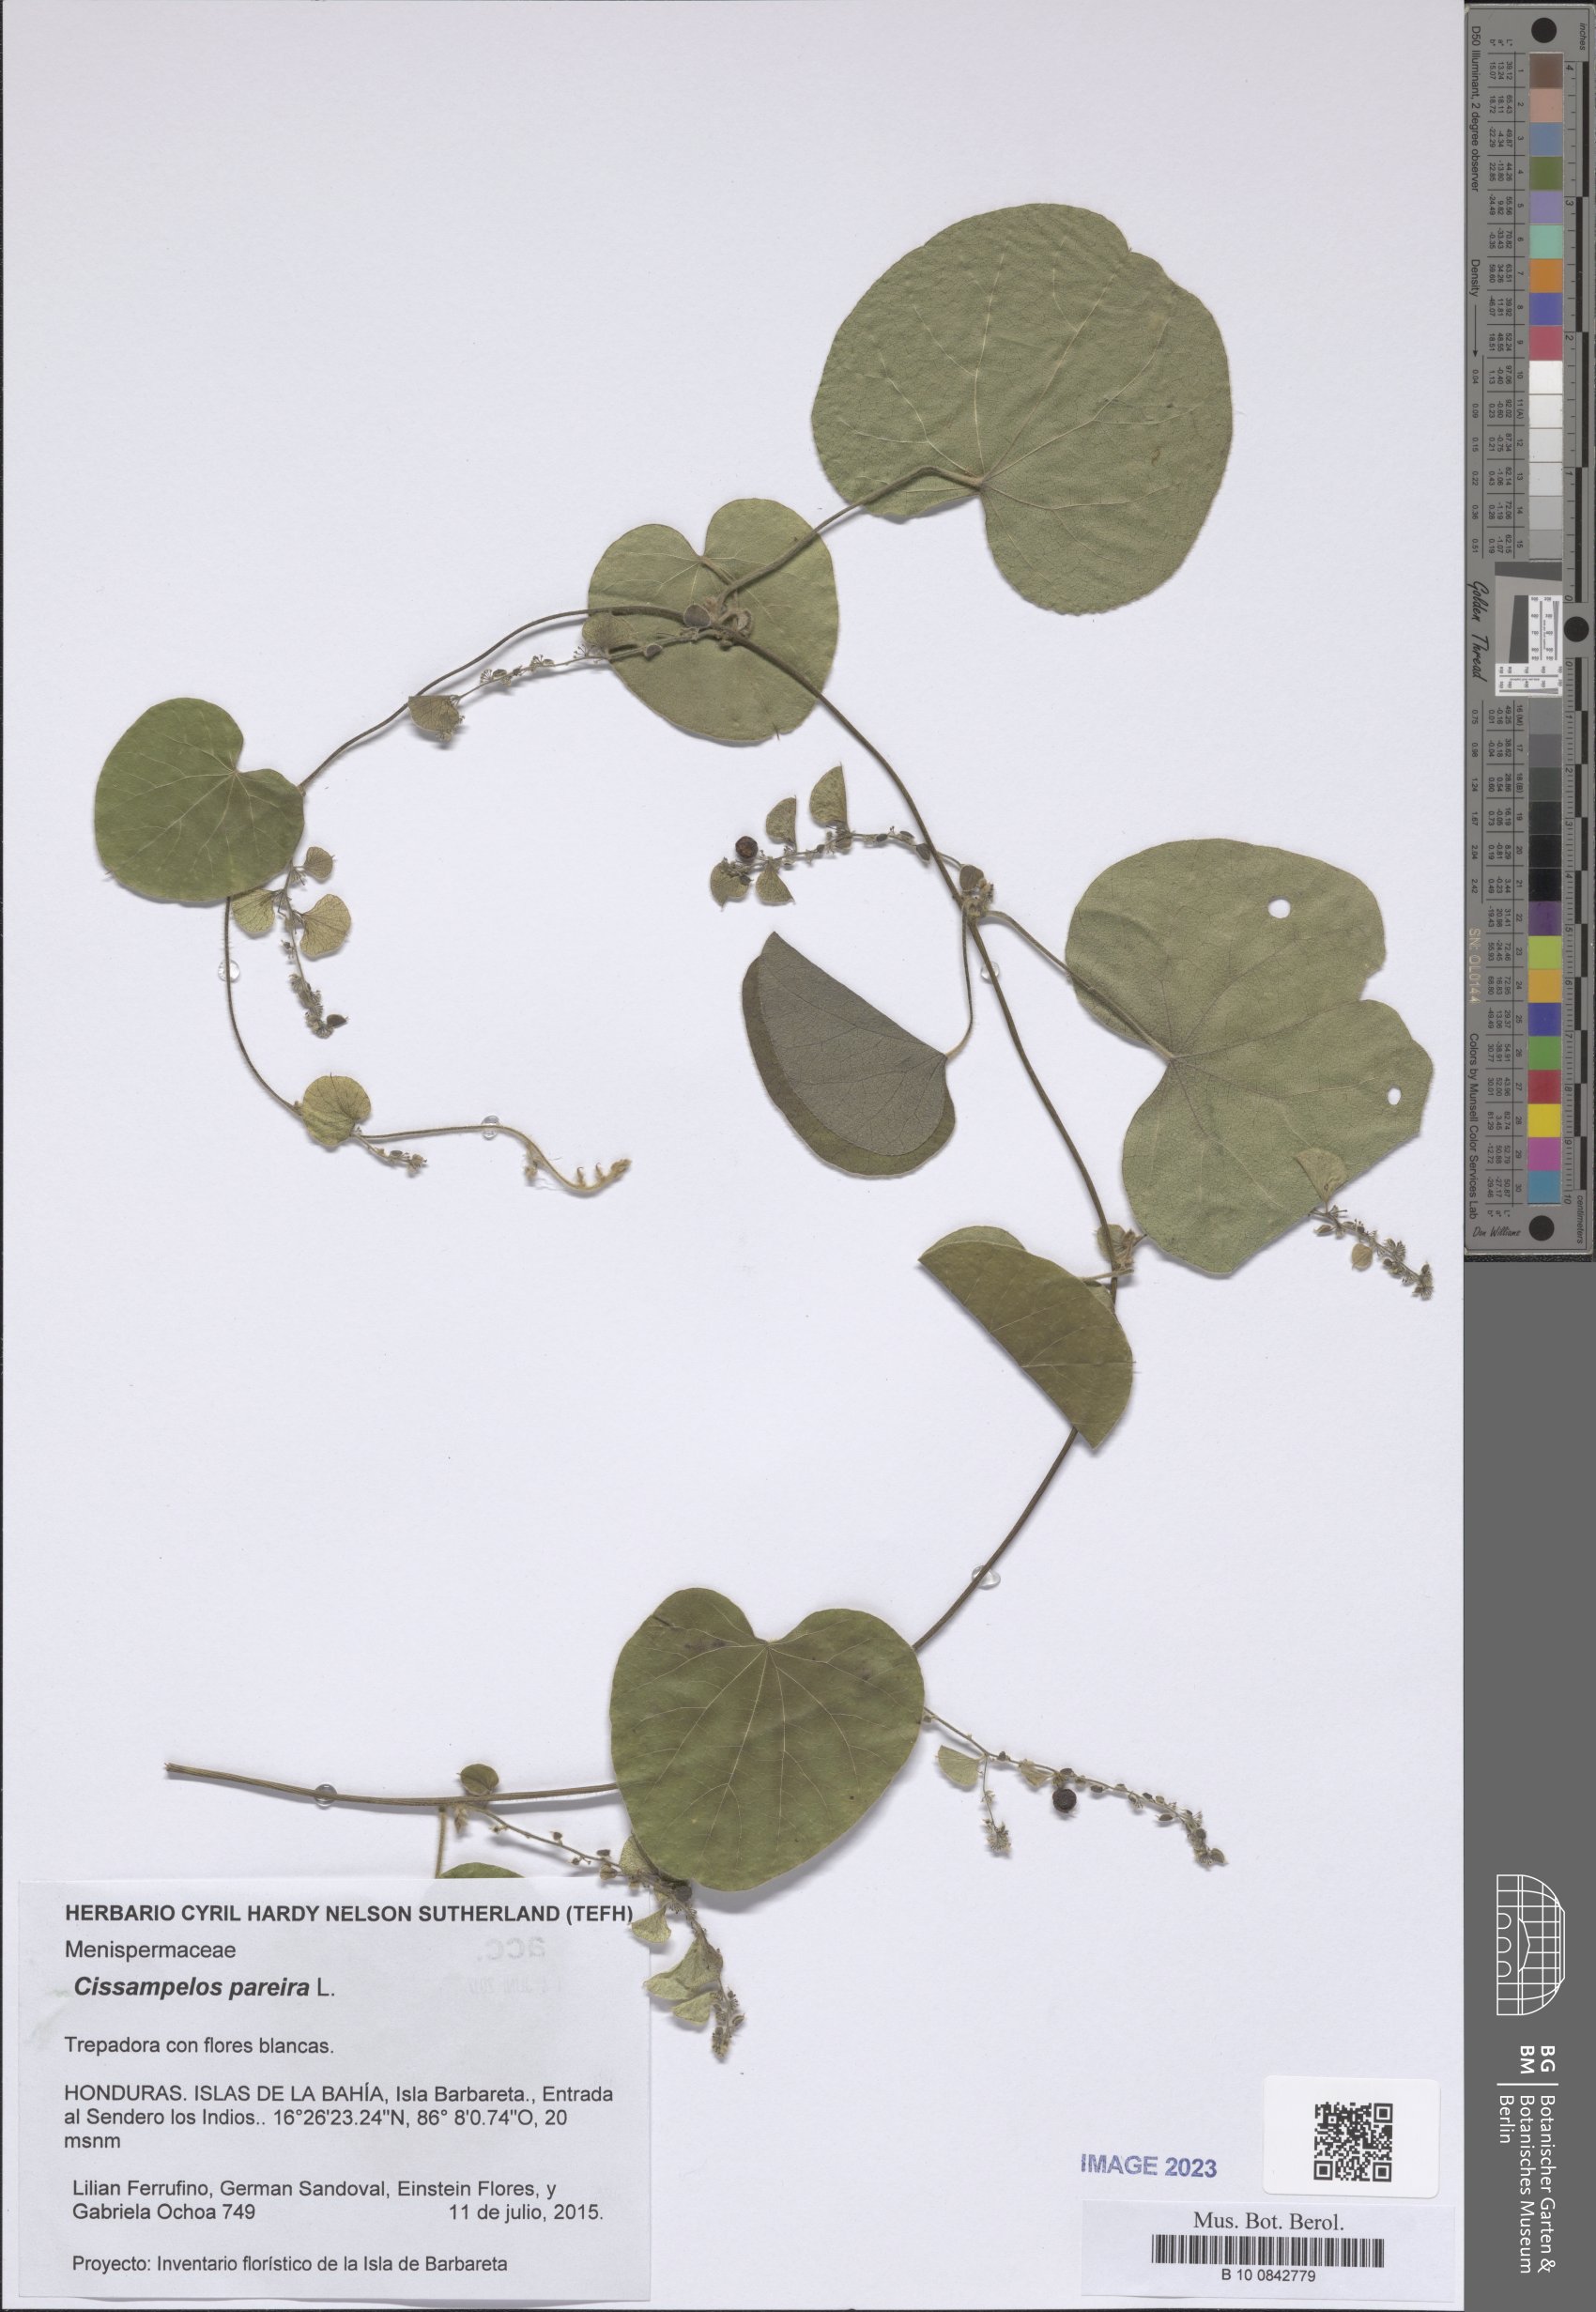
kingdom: Plantae
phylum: Tracheophyta
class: Magnoliopsida
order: Ranunculales
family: Menispermaceae
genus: Cissampelos
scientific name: Cissampelos pareira
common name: Velvetleaf
